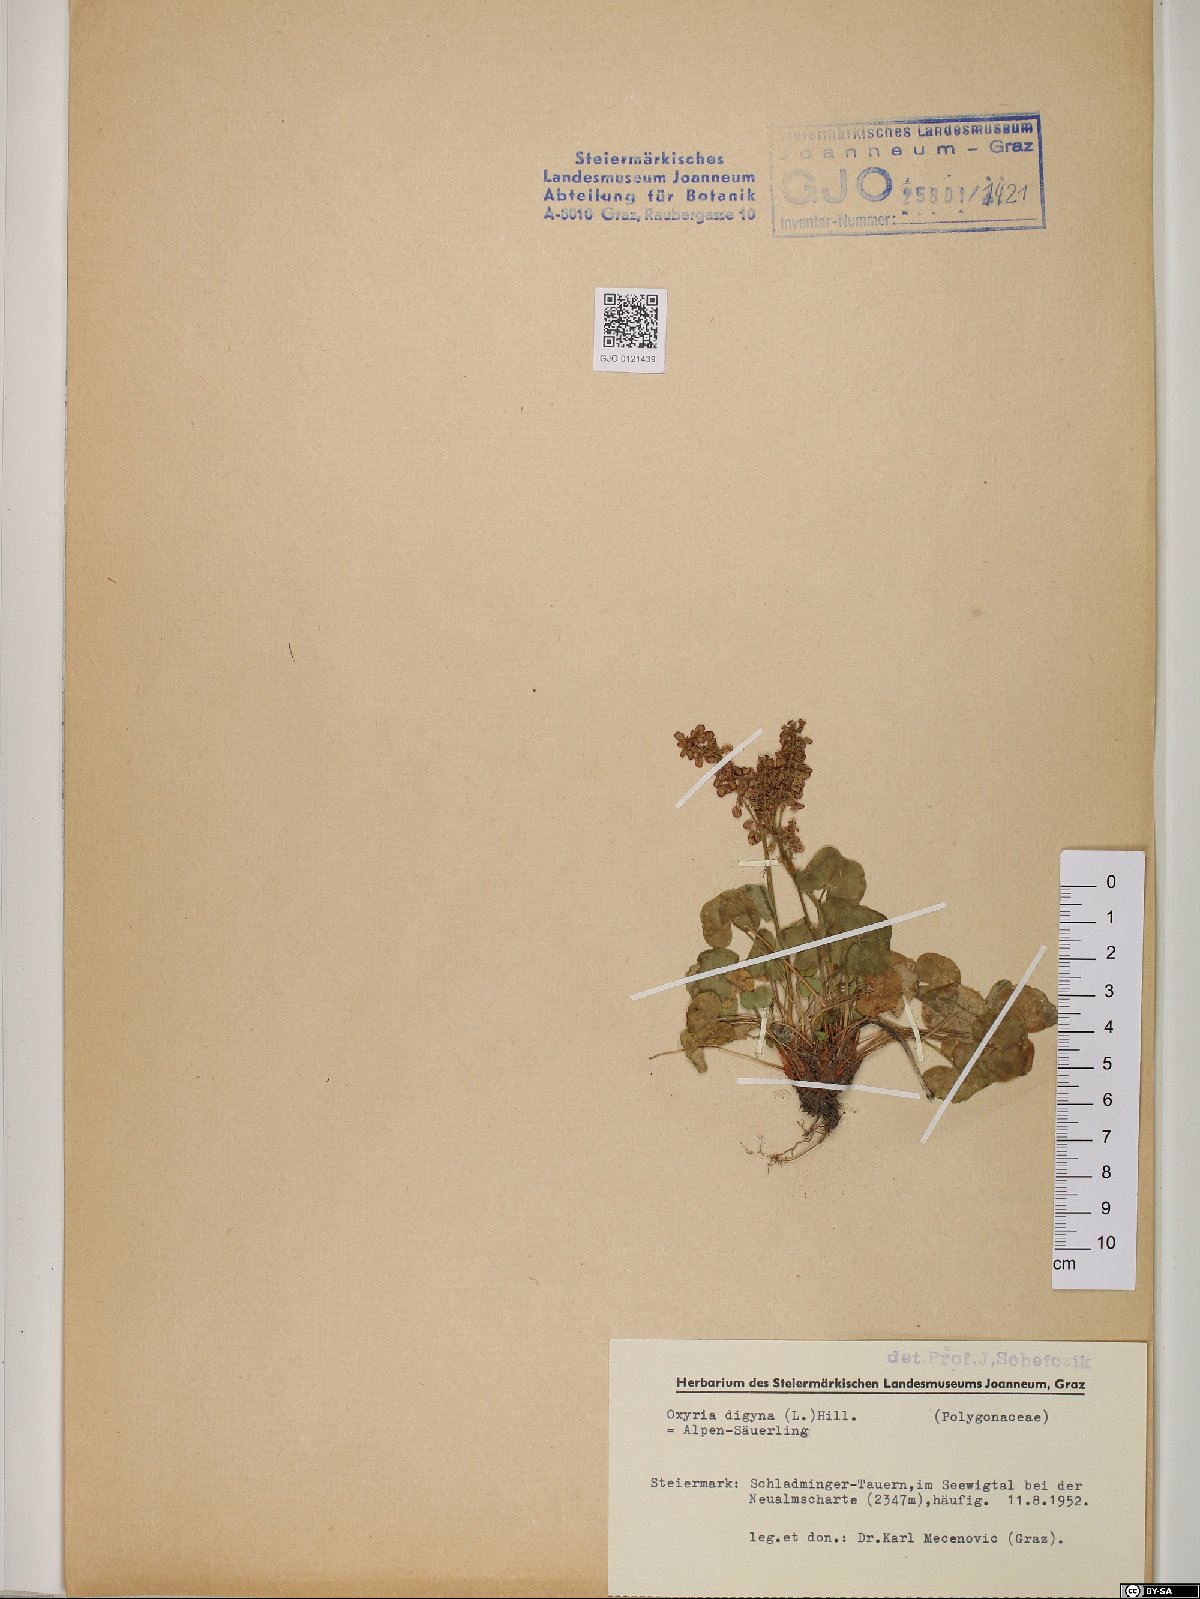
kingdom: Plantae
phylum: Tracheophyta
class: Magnoliopsida
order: Caryophyllales
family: Polygonaceae
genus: Oxyria
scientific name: Oxyria digyna
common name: Alpine mountain-sorrel
